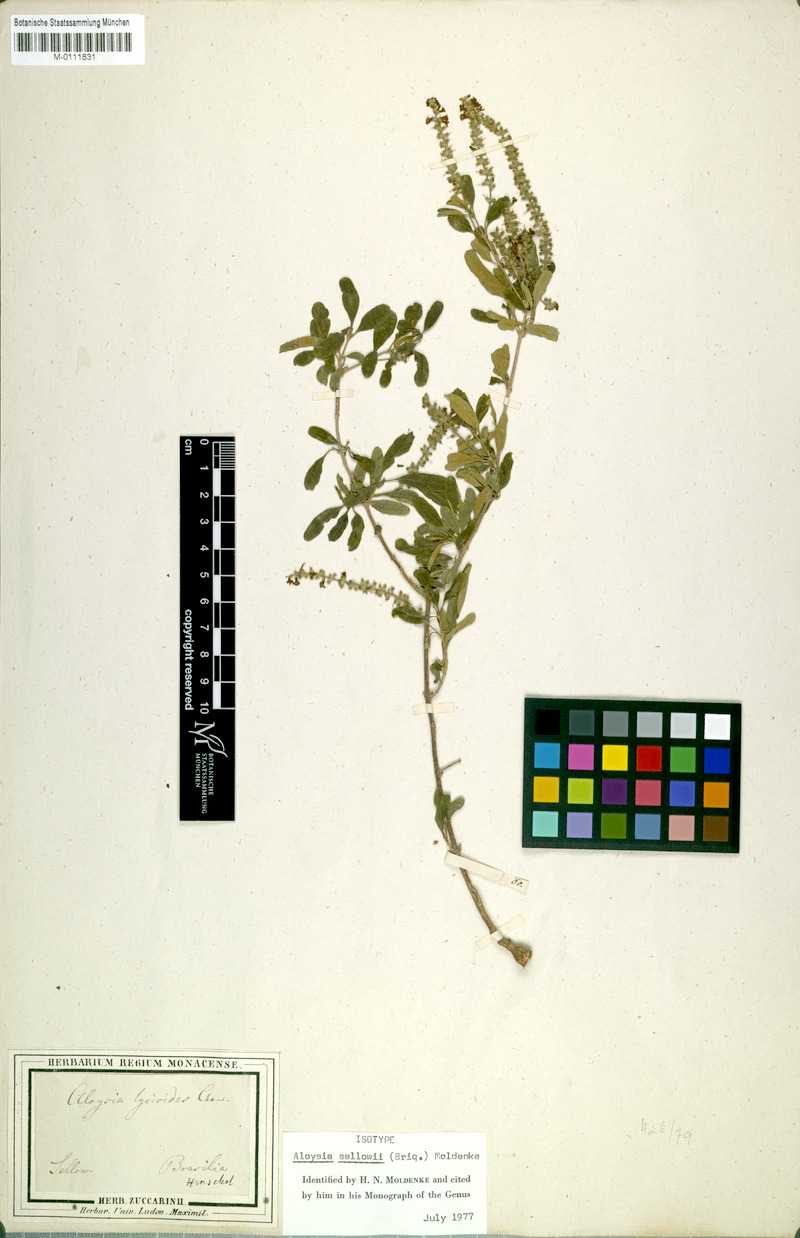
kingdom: Plantae
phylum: Tracheophyta
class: Magnoliopsida
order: Lamiales
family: Verbenaceae
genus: Aloysia
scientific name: Aloysia gratissima
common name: Common bee-brush
